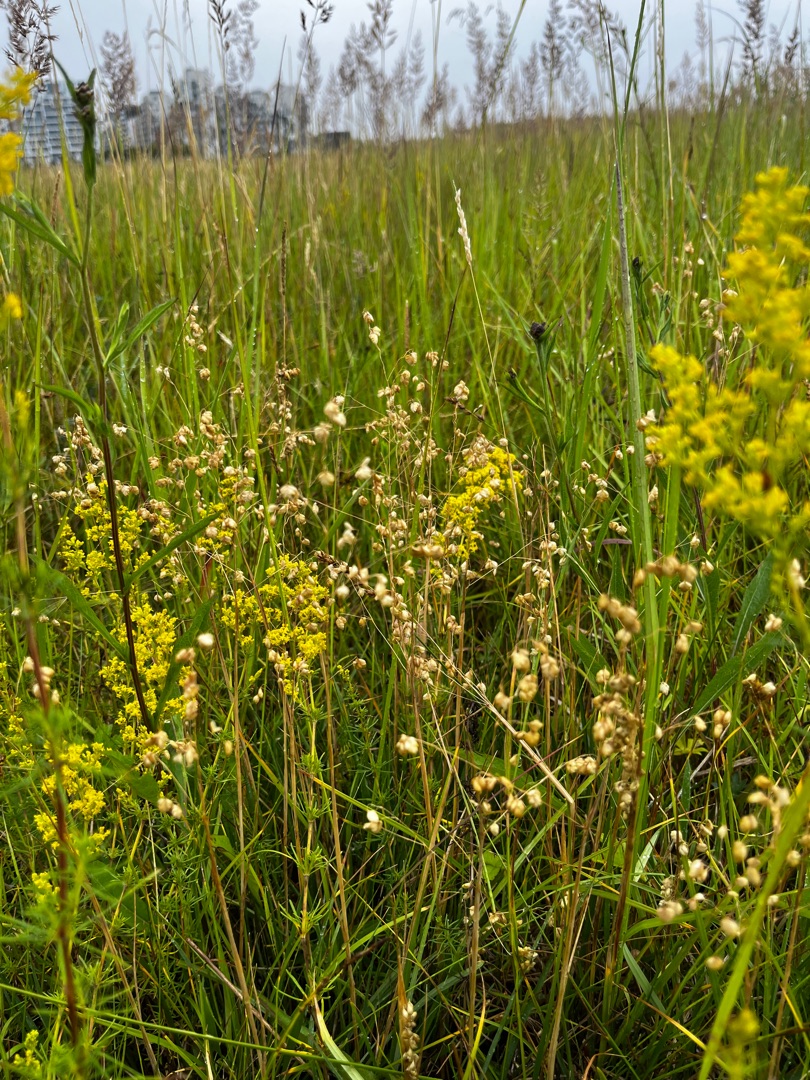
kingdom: Plantae
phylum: Tracheophyta
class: Liliopsida
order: Poales
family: Poaceae
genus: Briza
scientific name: Briza media
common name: Hjertegræs
